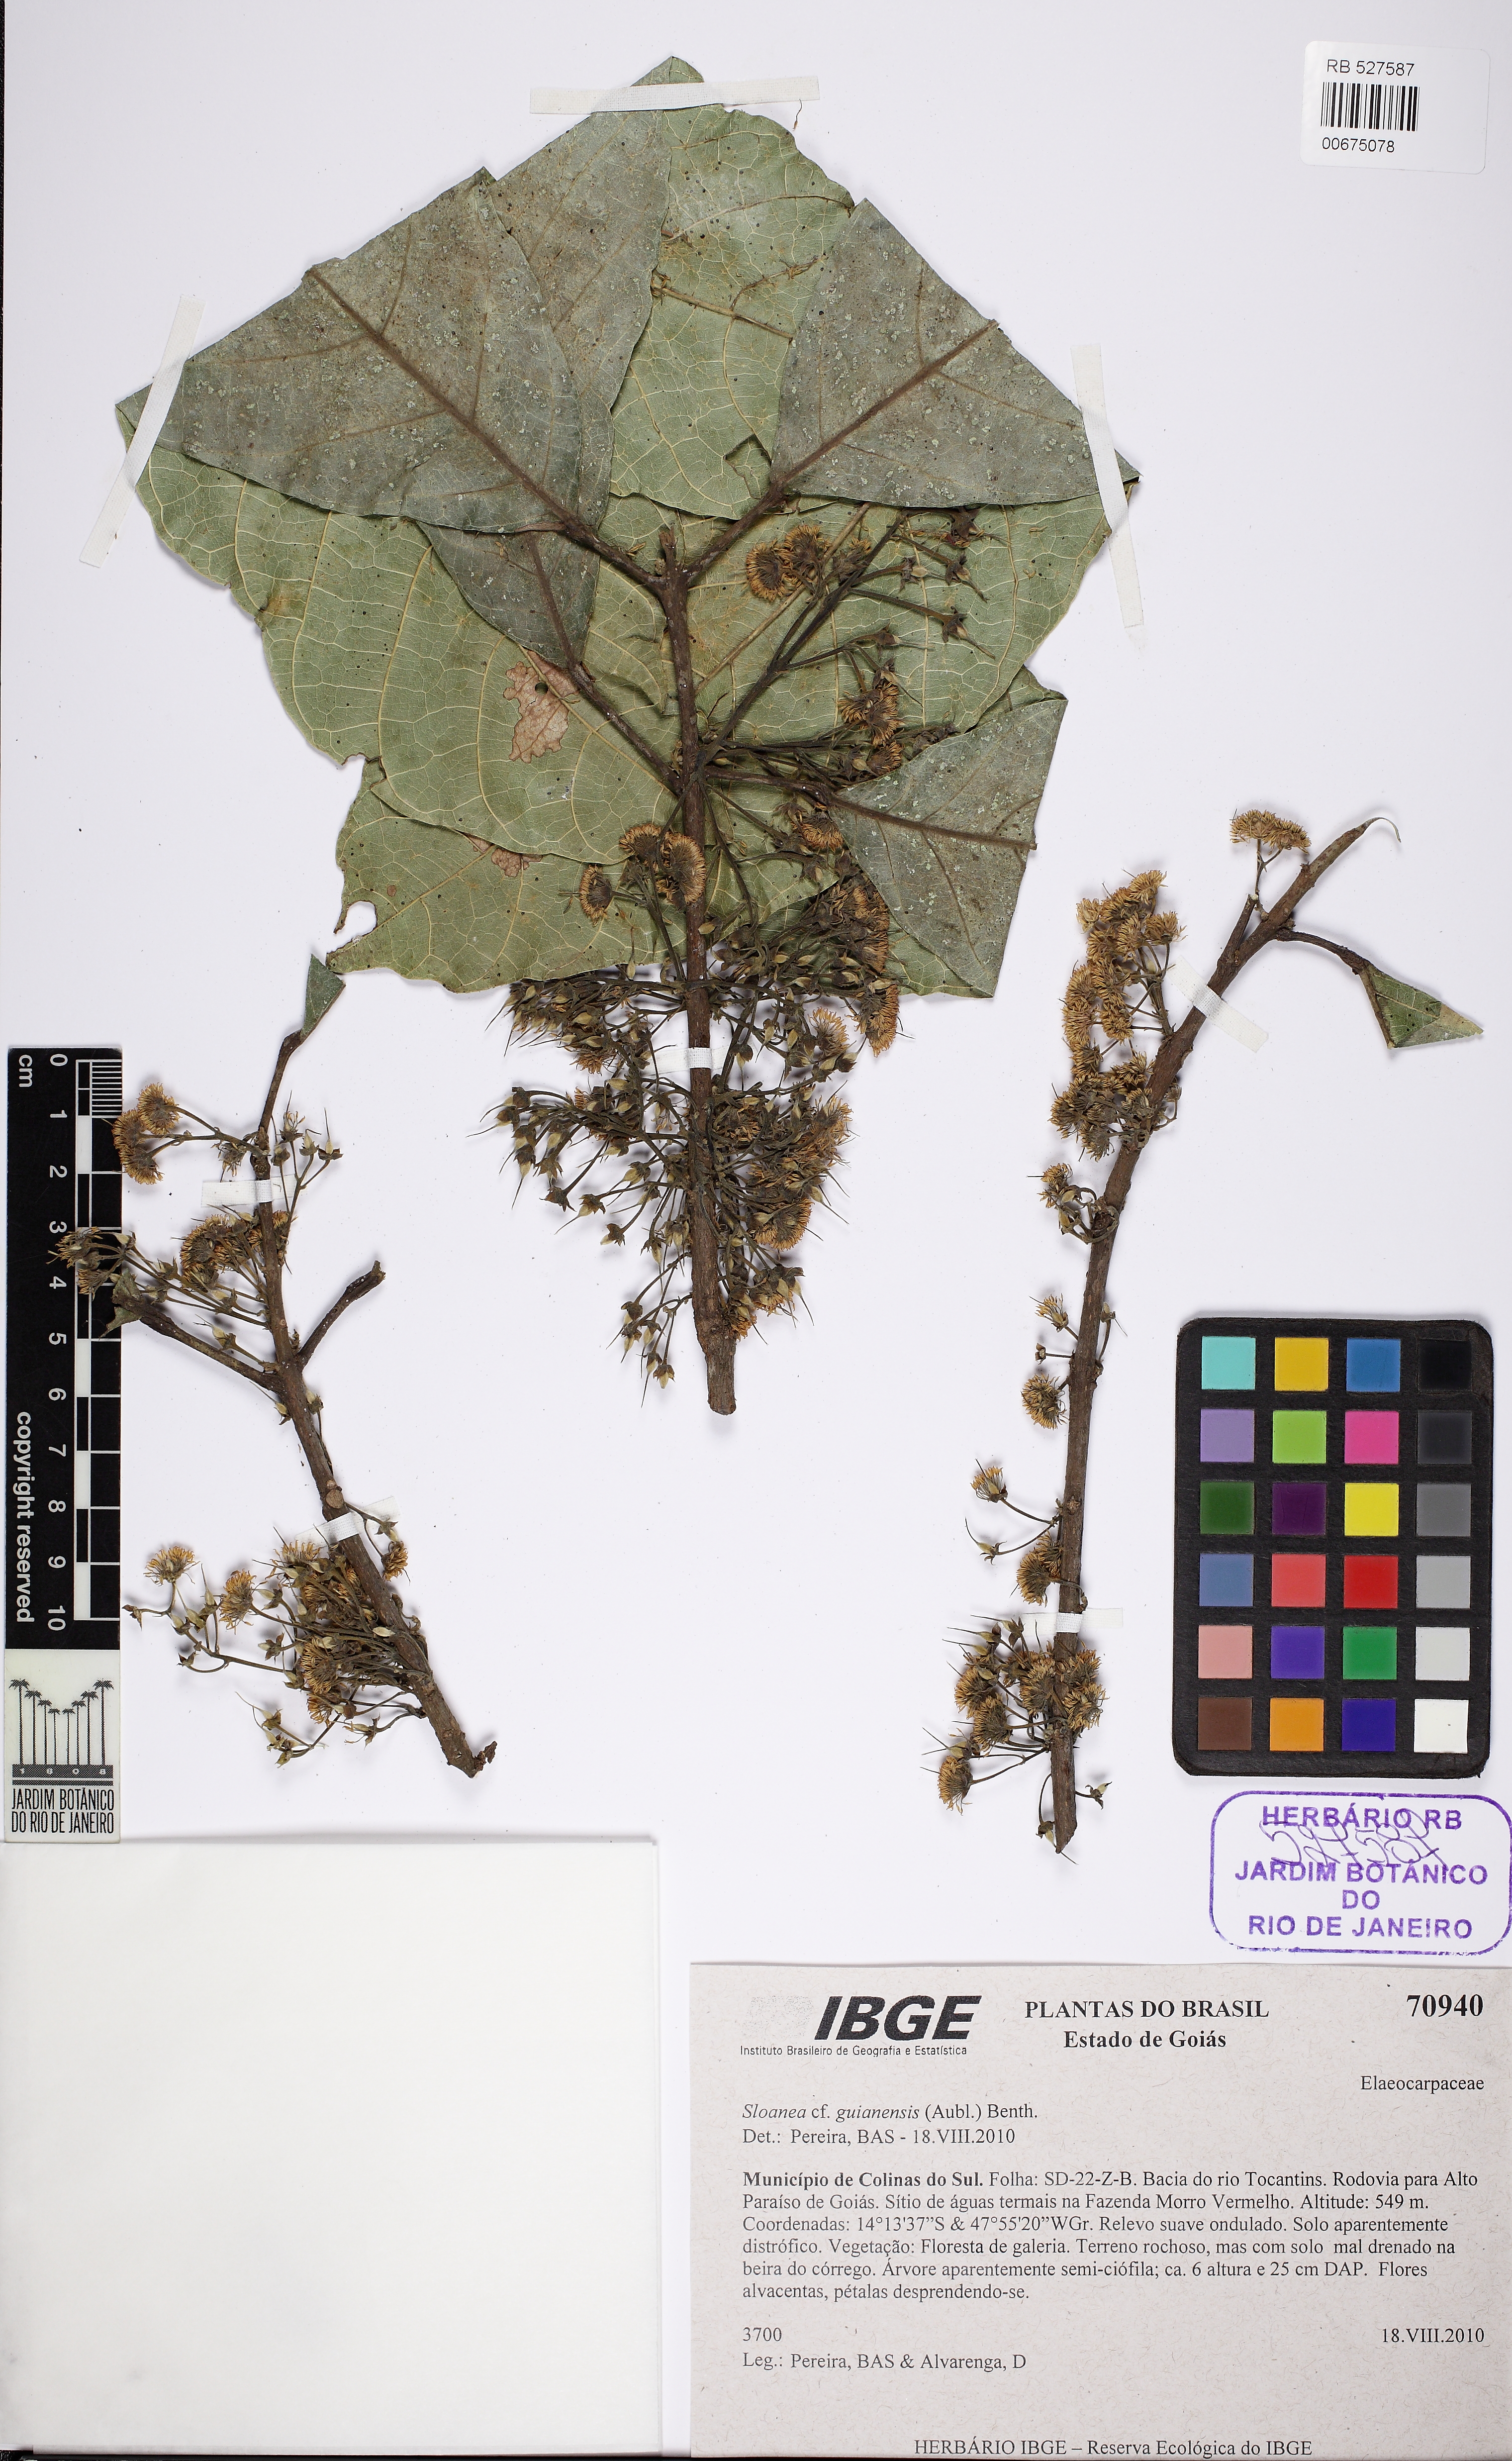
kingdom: Plantae
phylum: Tracheophyta
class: Magnoliopsida
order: Oxalidales
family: Elaeocarpaceae
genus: Sloanea
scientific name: Sloanea guianensis
